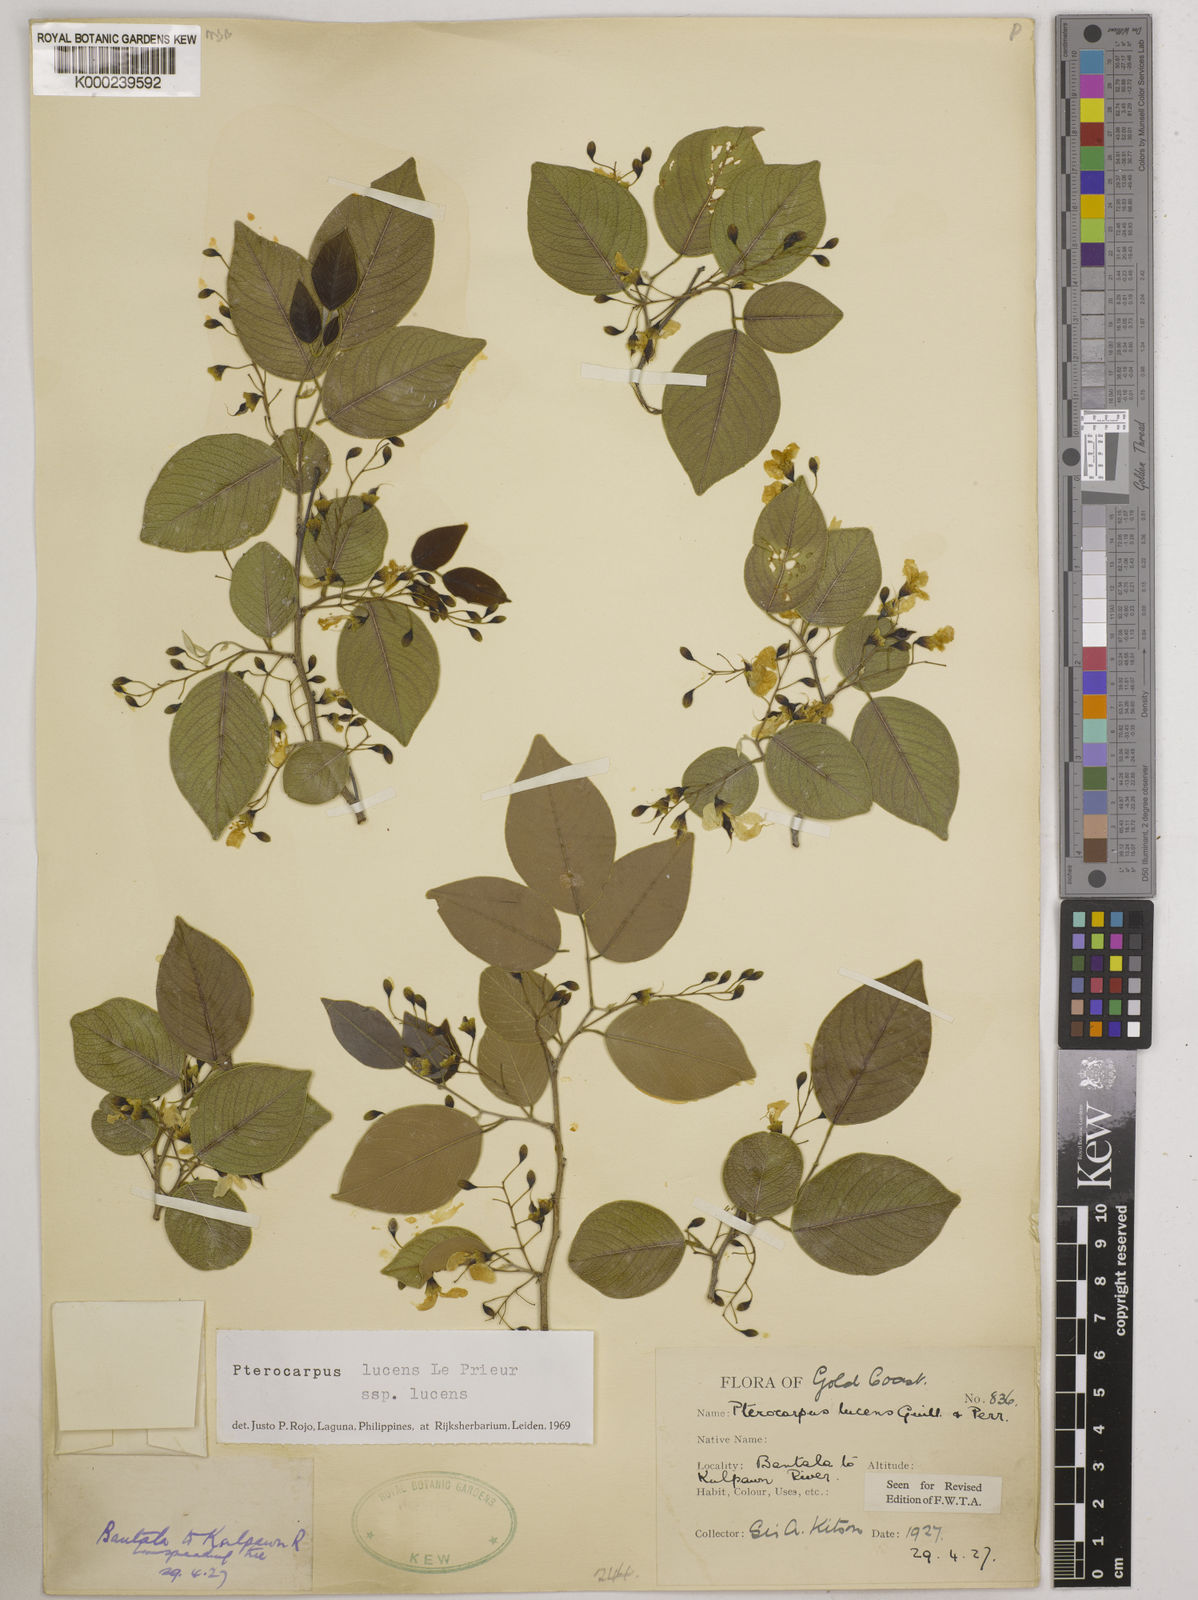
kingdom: Plantae
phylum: Tracheophyta
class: Magnoliopsida
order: Fabales
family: Fabaceae
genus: Pterocarpus
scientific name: Pterocarpus lucens
